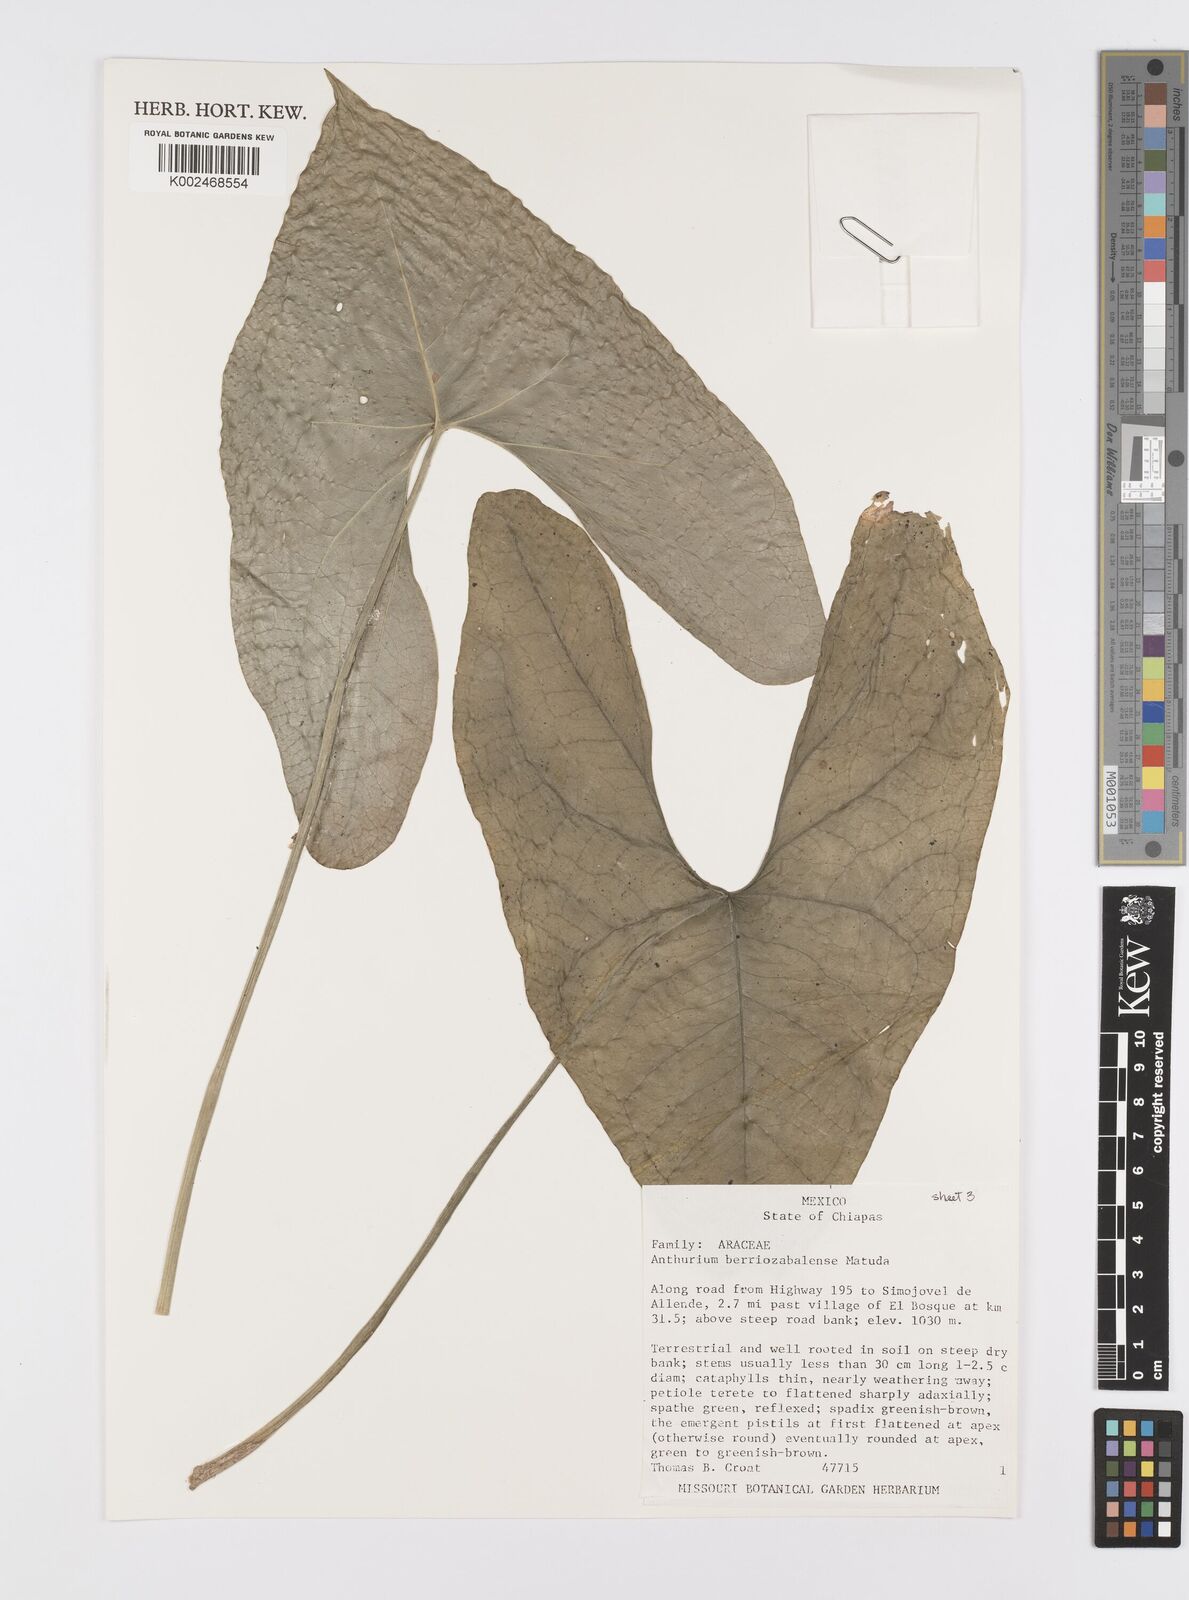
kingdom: Plantae
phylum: Tracheophyta
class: Liliopsida
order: Alismatales
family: Araceae
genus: Anthurium
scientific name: Anthurium berriozabalense
